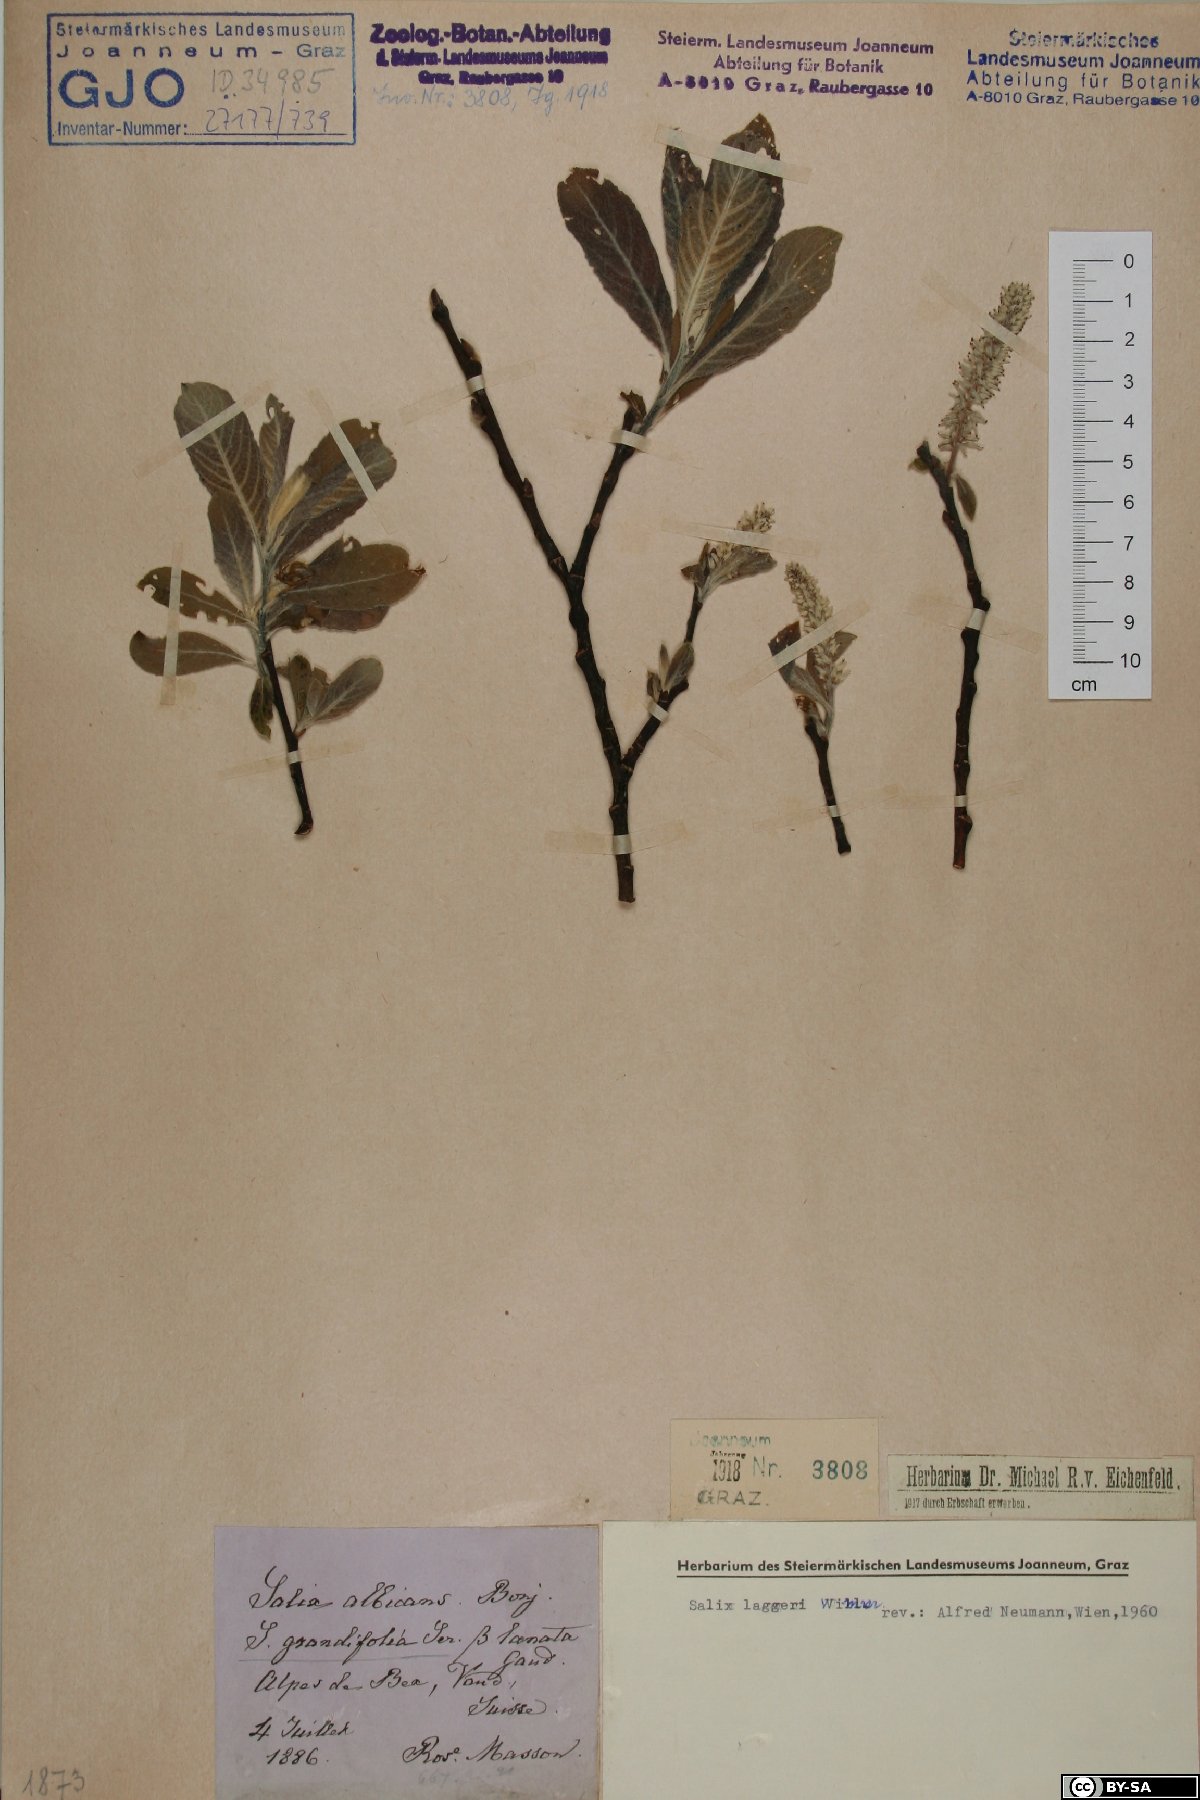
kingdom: Plantae
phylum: Tracheophyta
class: Magnoliopsida
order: Malpighiales
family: Salicaceae
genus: Salix
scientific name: Salix laggeri
